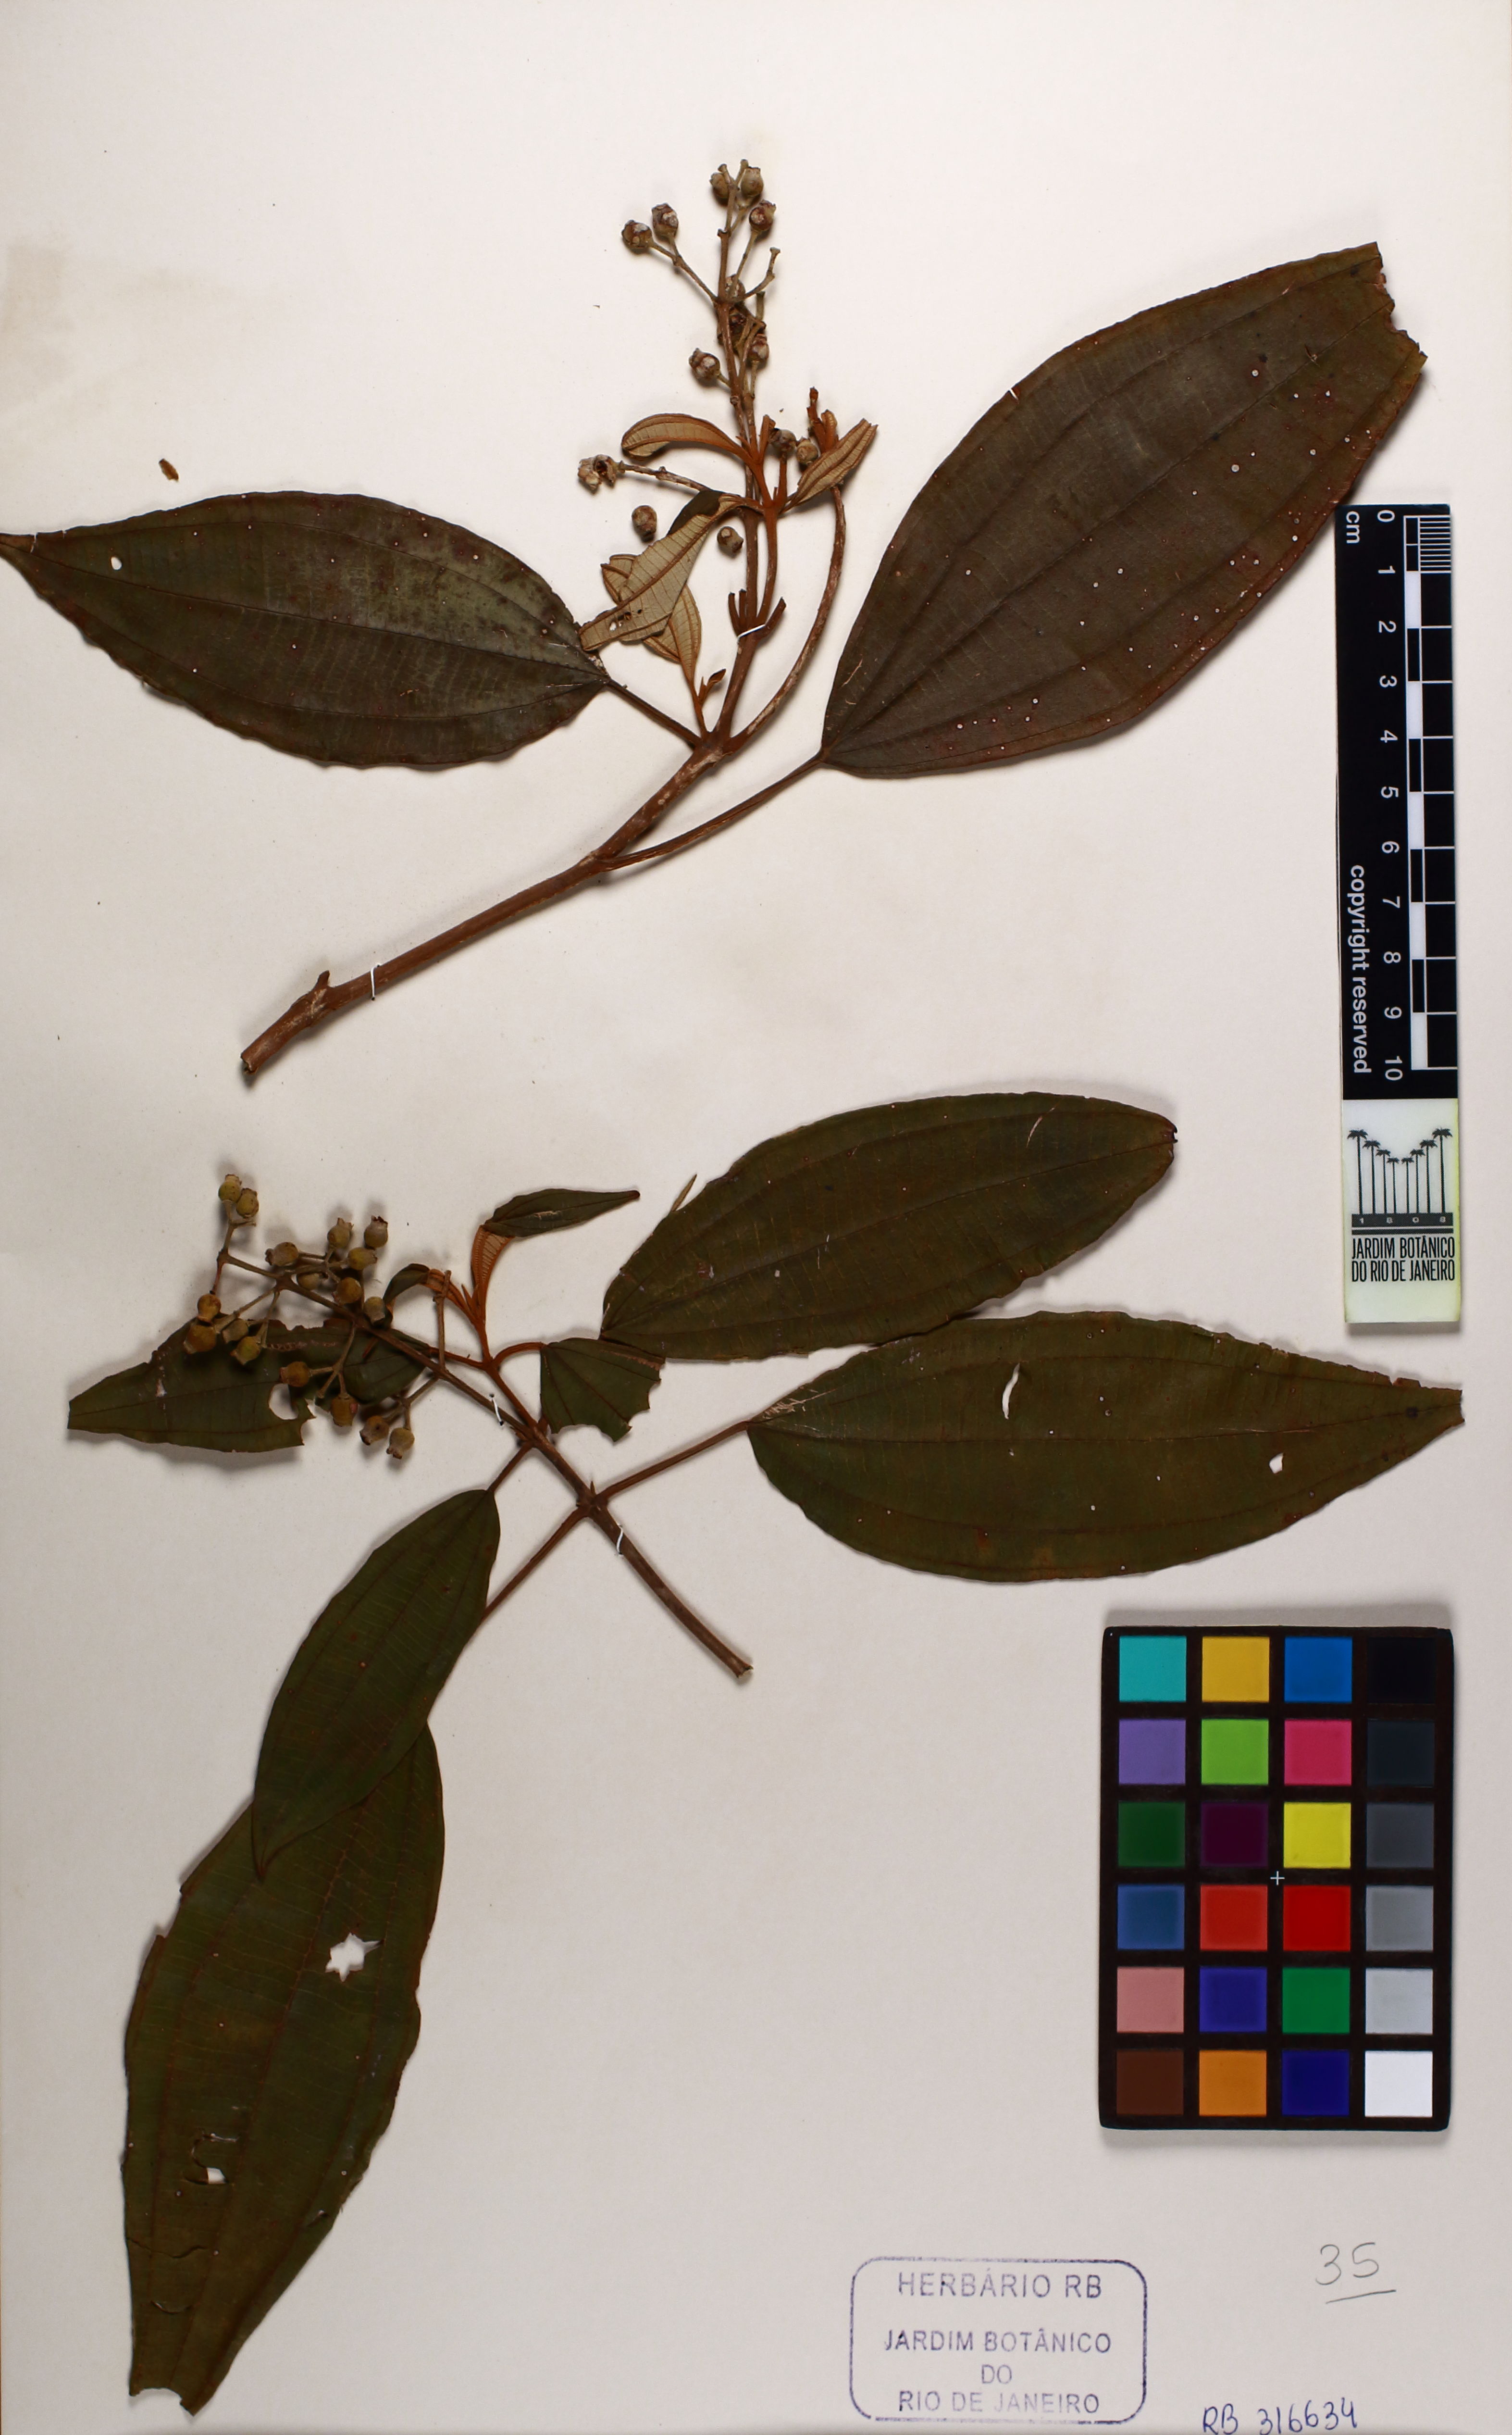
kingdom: Plantae
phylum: Tracheophyta
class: Magnoliopsida
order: Myrtales
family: Melastomataceae
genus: Miconia
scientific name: Miconia dodecandra
